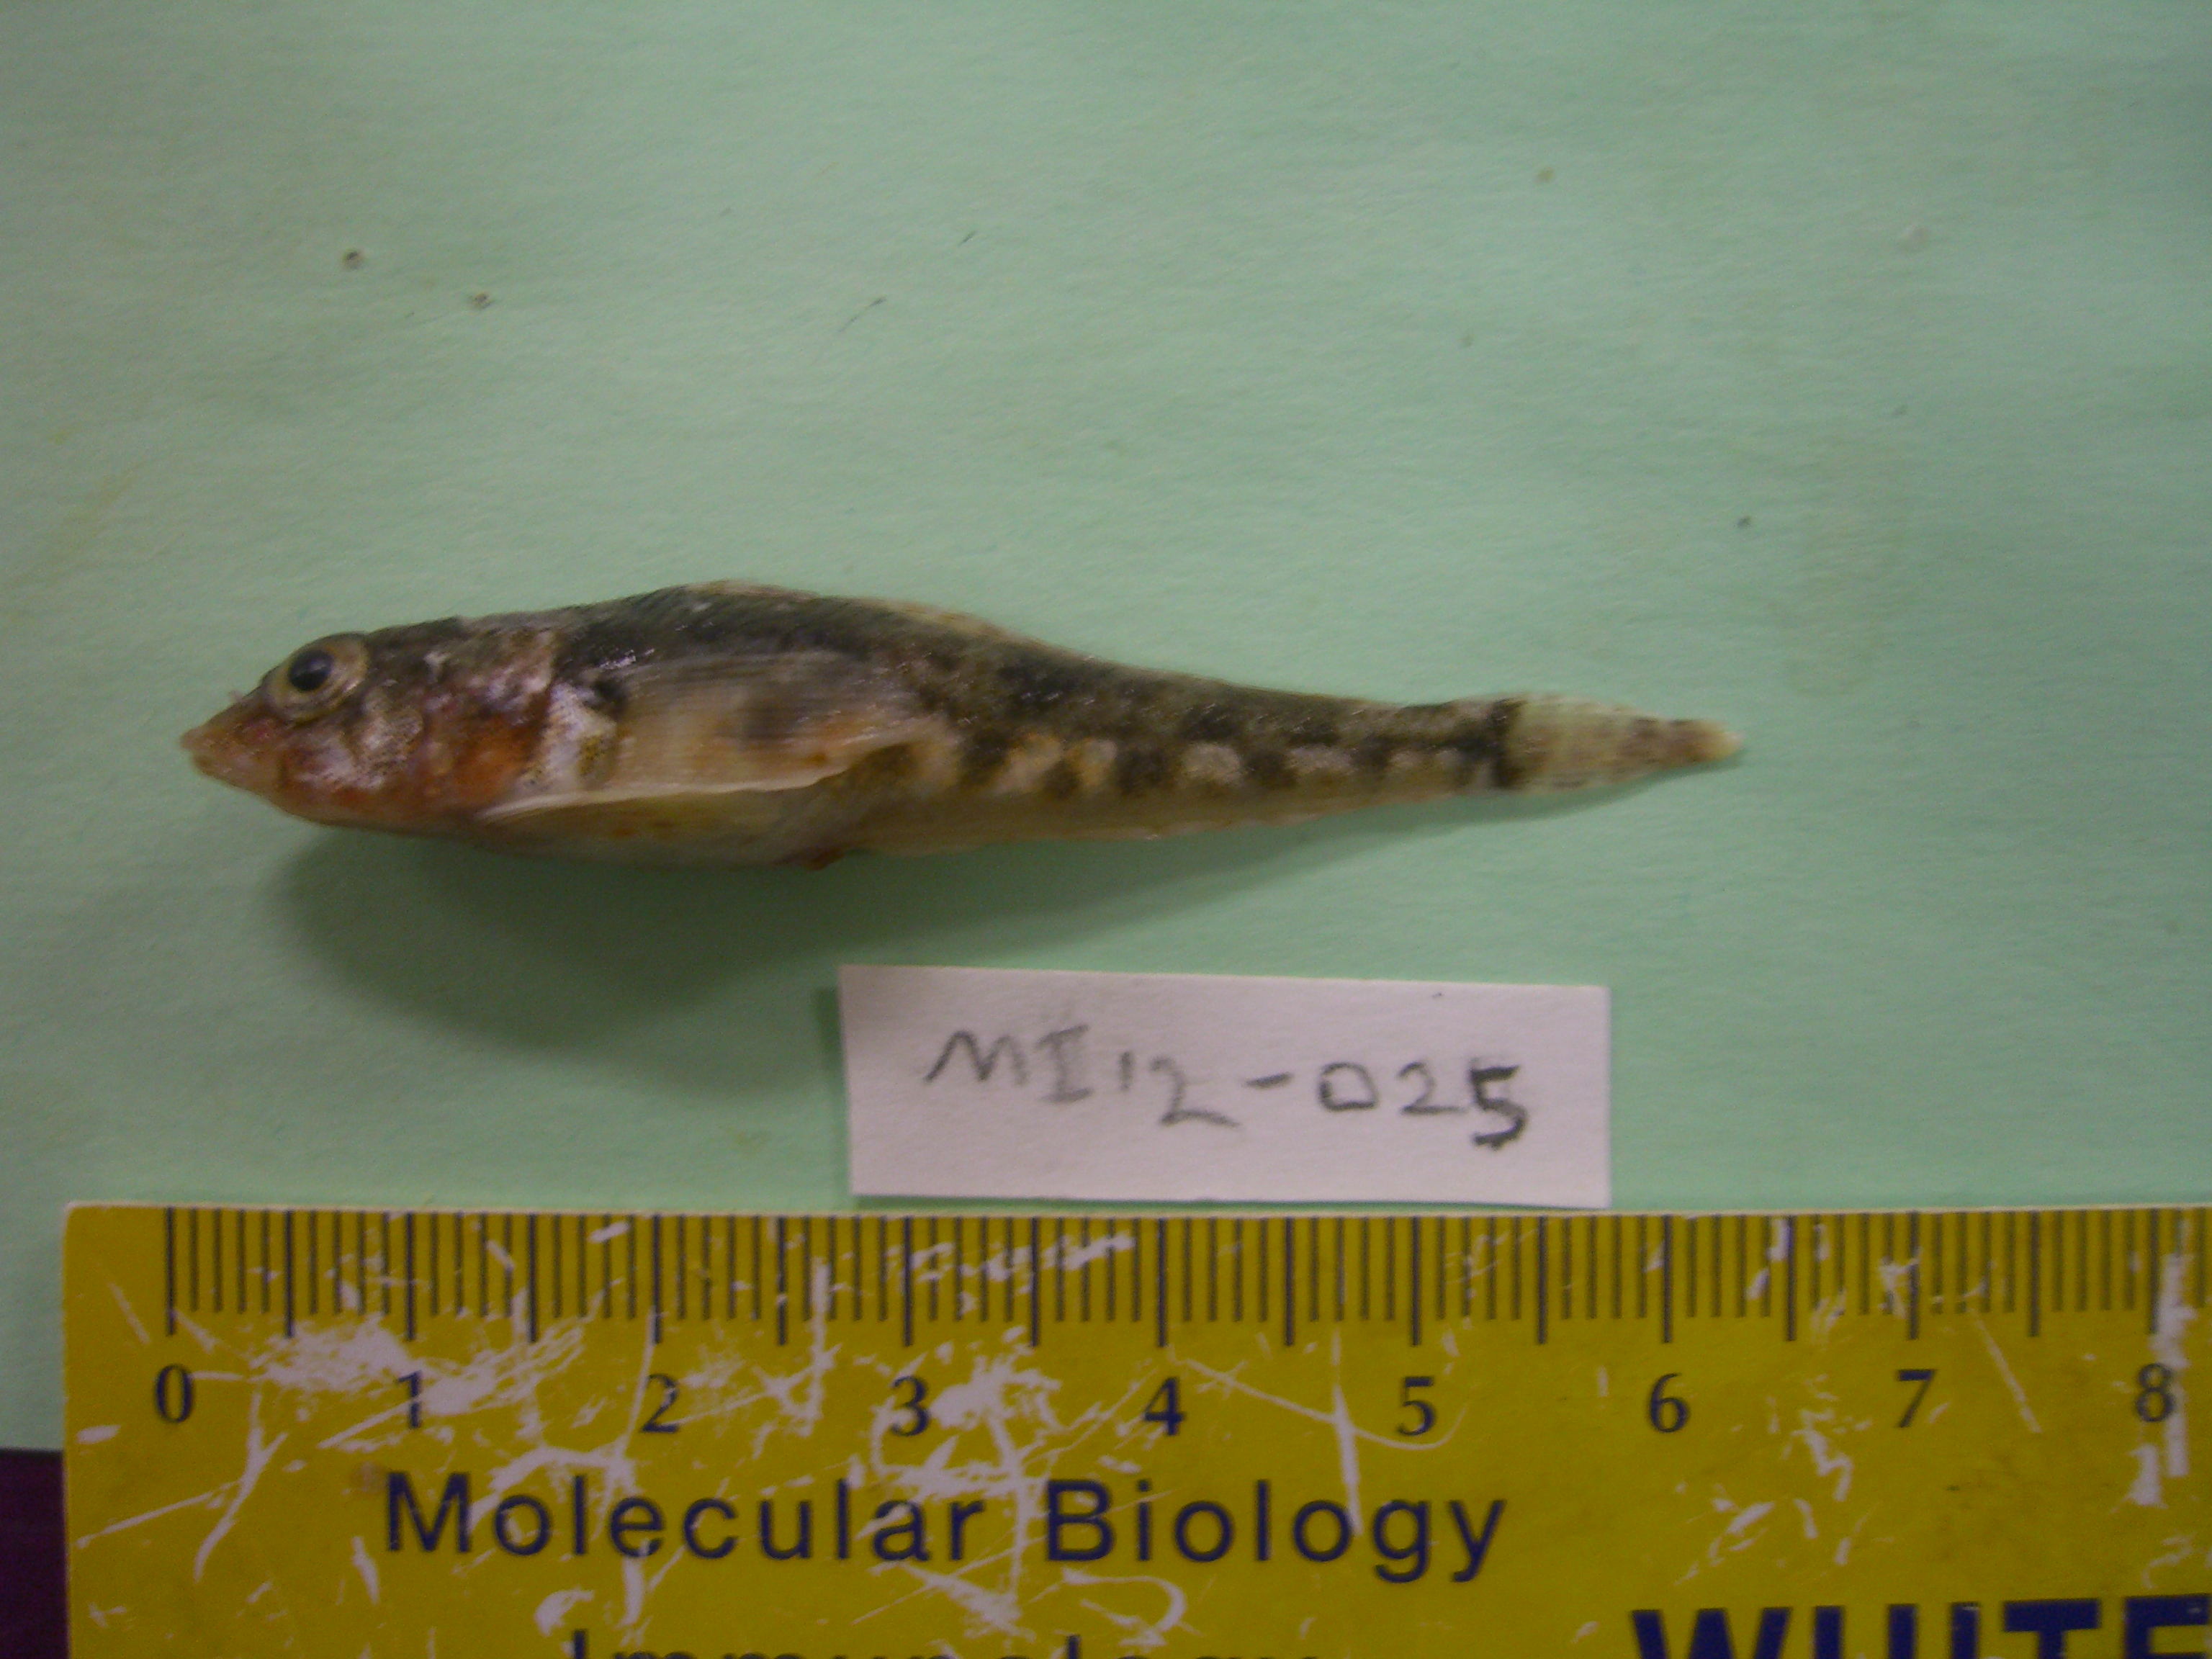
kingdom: Animalia
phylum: Chordata
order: Perciformes
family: Nototheniidae
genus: Gobionotothen
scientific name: Gobionotothen marionensis
